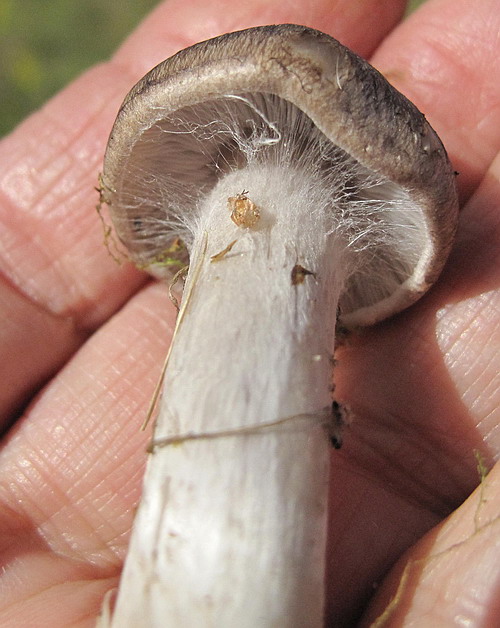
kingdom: Fungi
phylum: Basidiomycota
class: Agaricomycetes
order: Agaricales
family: Tricholomataceae
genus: Tricholoma
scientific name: Tricholoma argyraceum
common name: slør-ridderhat
